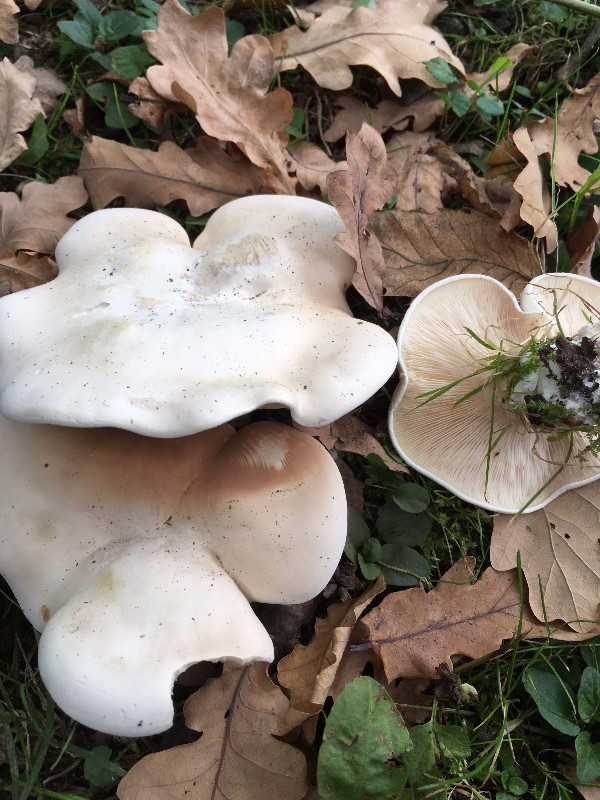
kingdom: Fungi
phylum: Basidiomycota
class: Agaricomycetes
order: Agaricales
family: Entolomataceae
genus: Clitopilus
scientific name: Clitopilus prunulus
